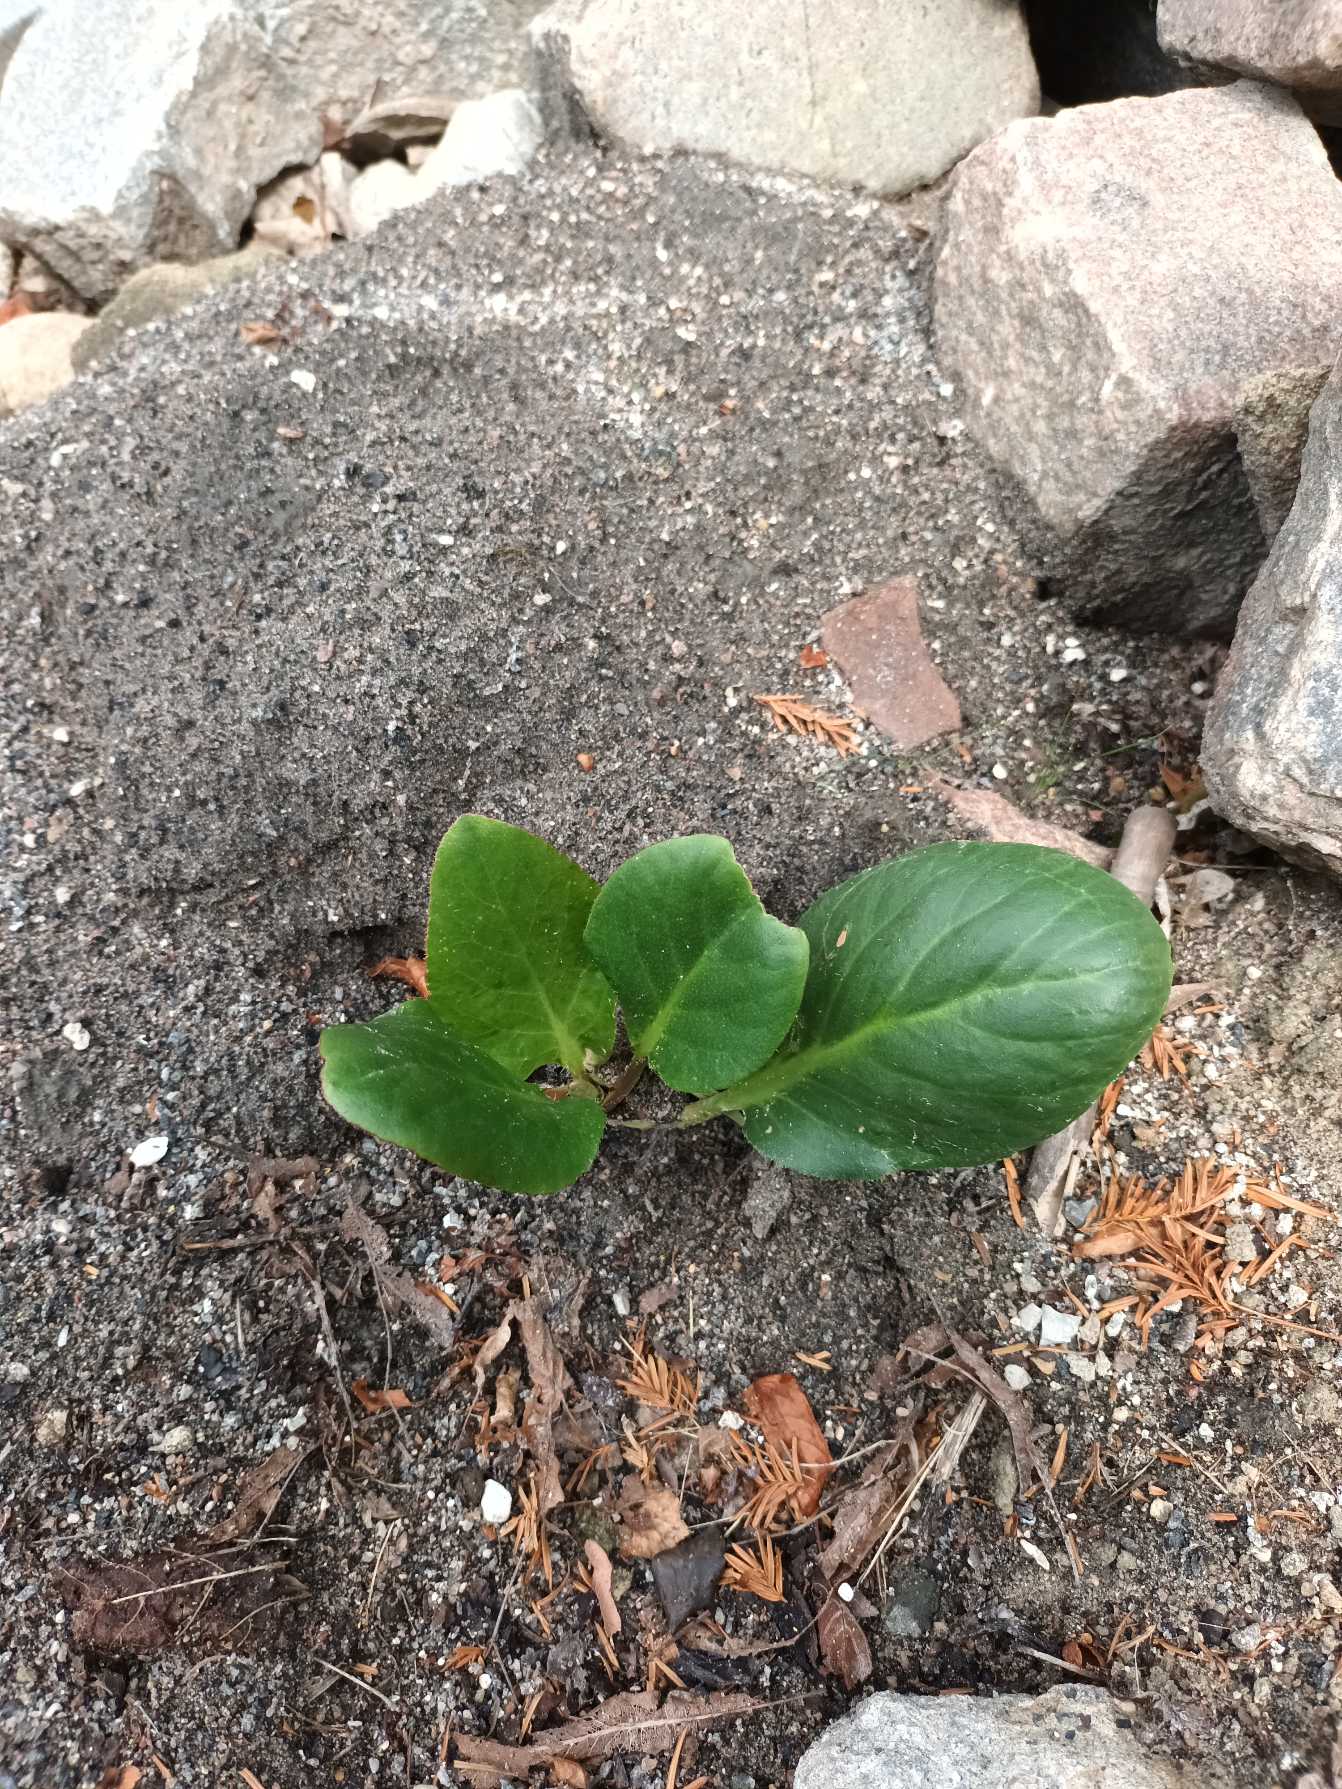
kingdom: Plantae
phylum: Tracheophyta
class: Magnoliopsida
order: Saxifragales
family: Saxifragaceae
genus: Bergenia
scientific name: Bergenia crassifolia
